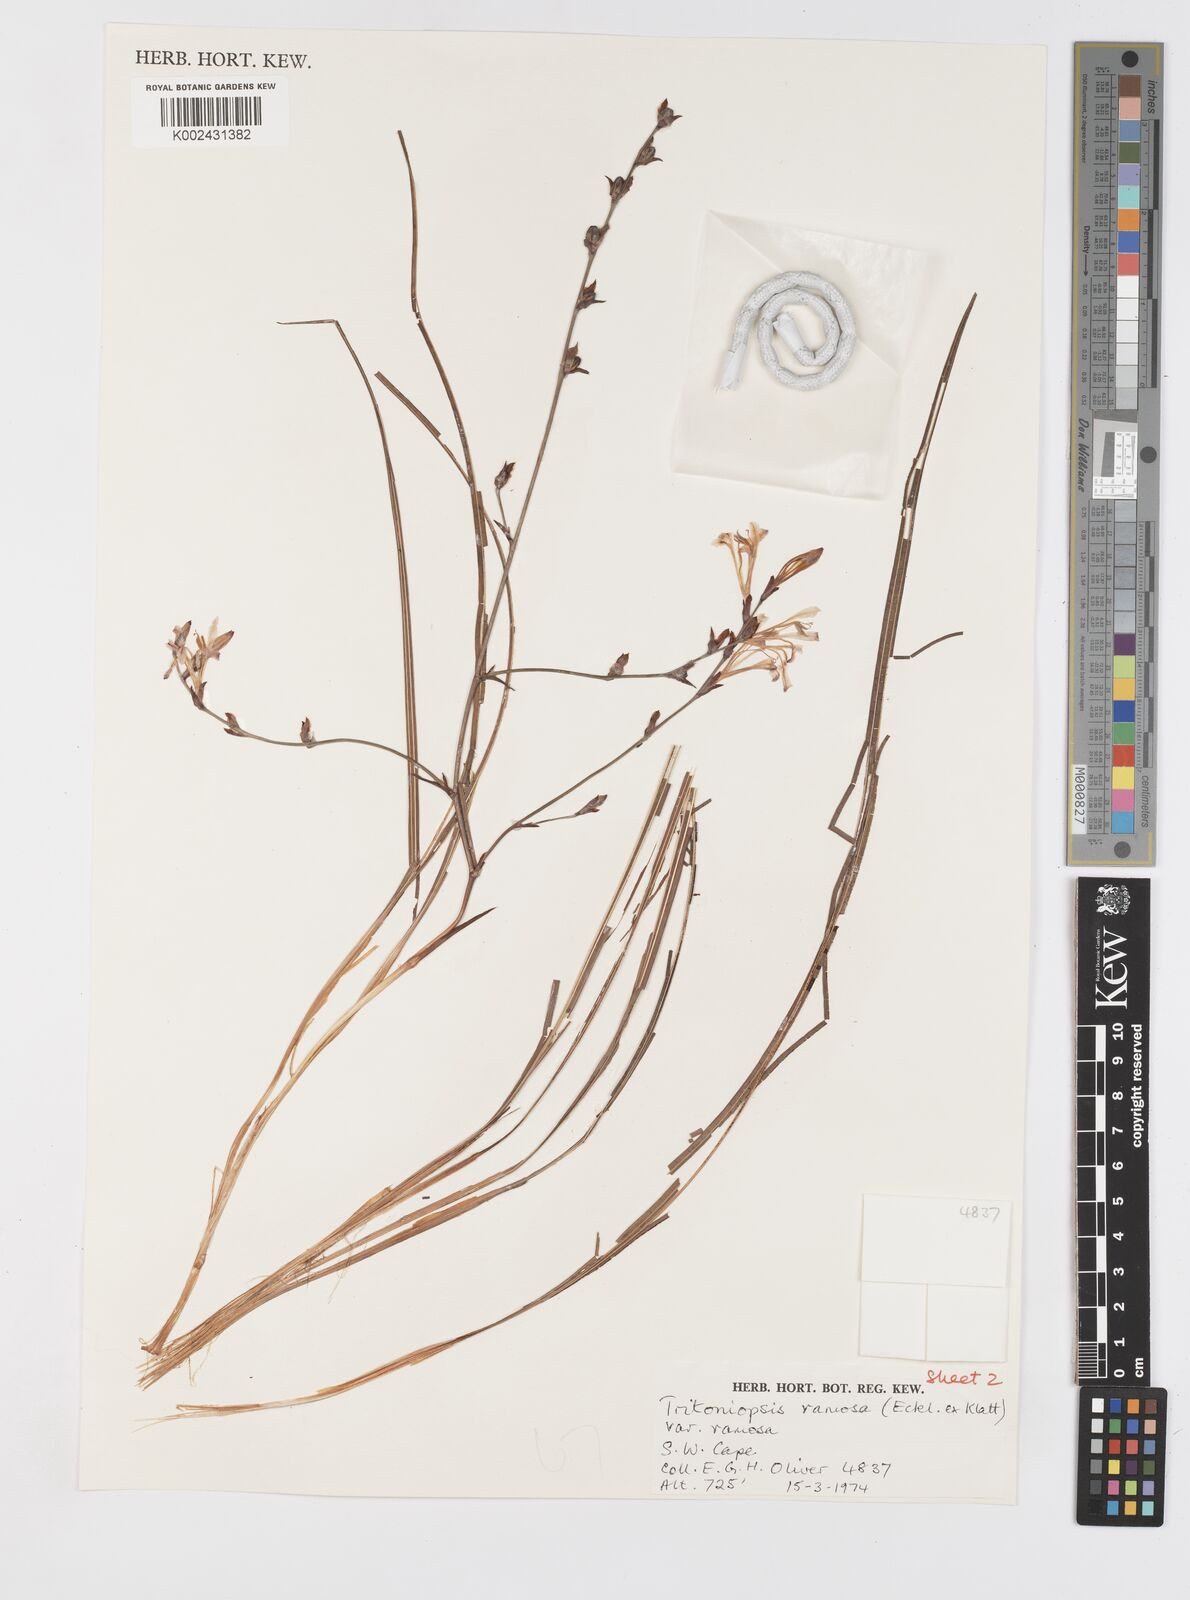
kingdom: Plantae
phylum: Tracheophyta
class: Liliopsida
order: Asparagales
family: Iridaceae
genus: Tritoniopsis
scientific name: Tritoniopsis ramosa
